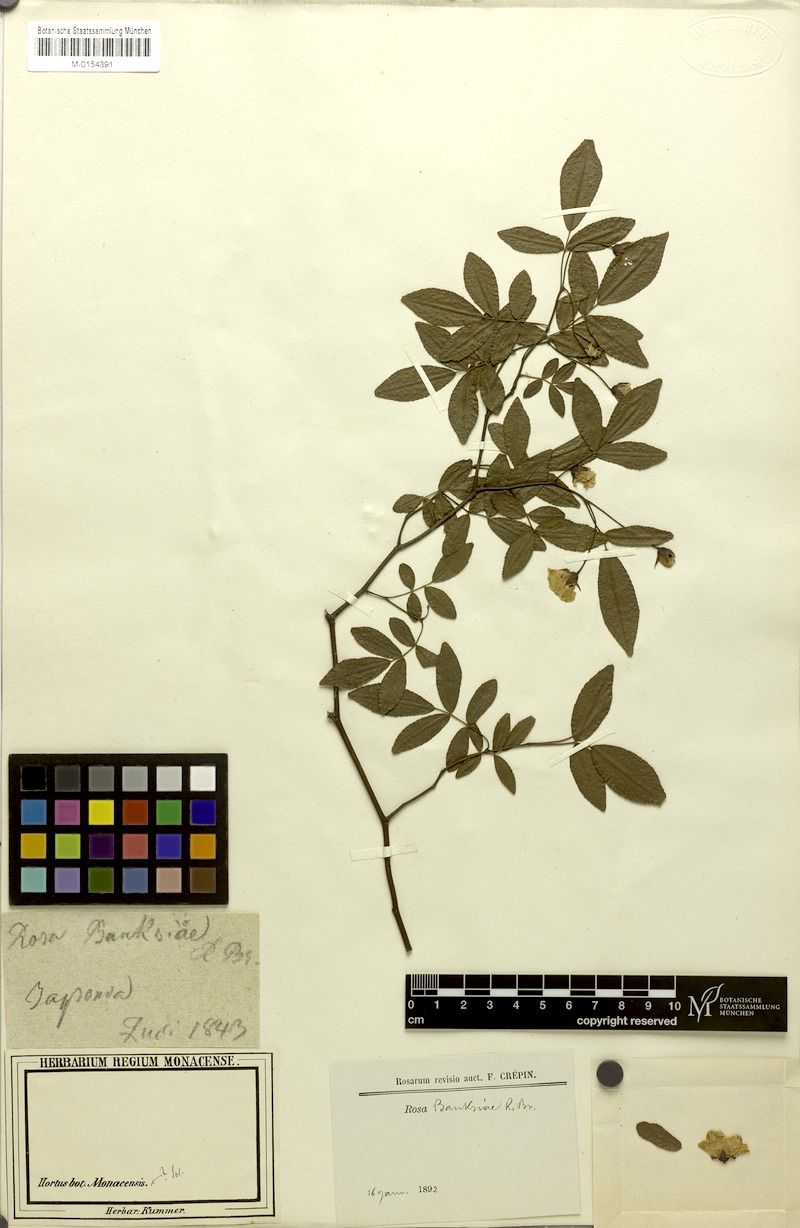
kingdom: Plantae
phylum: Tracheophyta
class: Magnoliopsida
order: Rosales
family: Rosaceae
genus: Rosa
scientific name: Rosa banksiae
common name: Banksian rose
